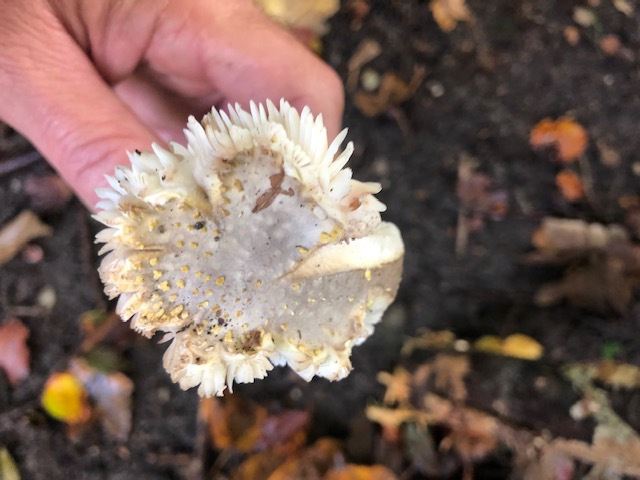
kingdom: Fungi
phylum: Basidiomycota
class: Agaricomycetes
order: Agaricales
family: Amanitaceae
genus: Amanita
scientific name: Amanita franchetii
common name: gulrandet fluesvamp
